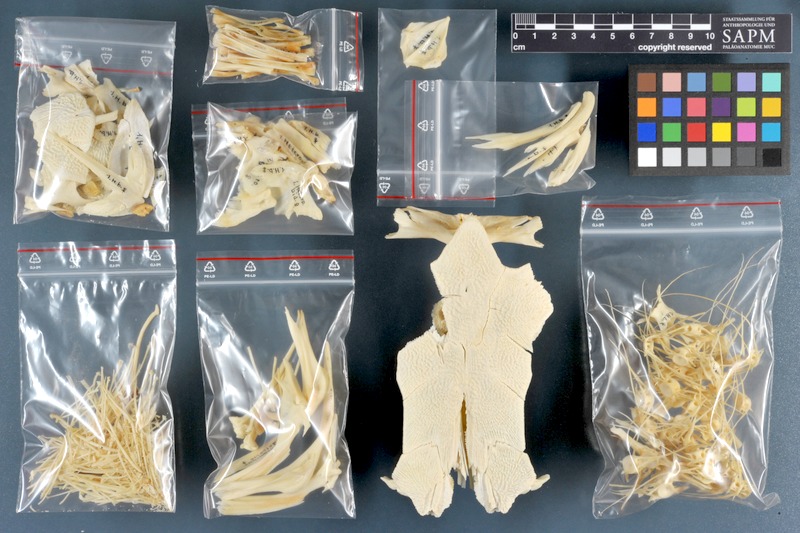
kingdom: Animalia
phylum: Chordata
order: Siluriformes
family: Clariidae
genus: Heterobranchus
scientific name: Heterobranchus bidorsalis
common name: Eel-like fattyfin catfish
